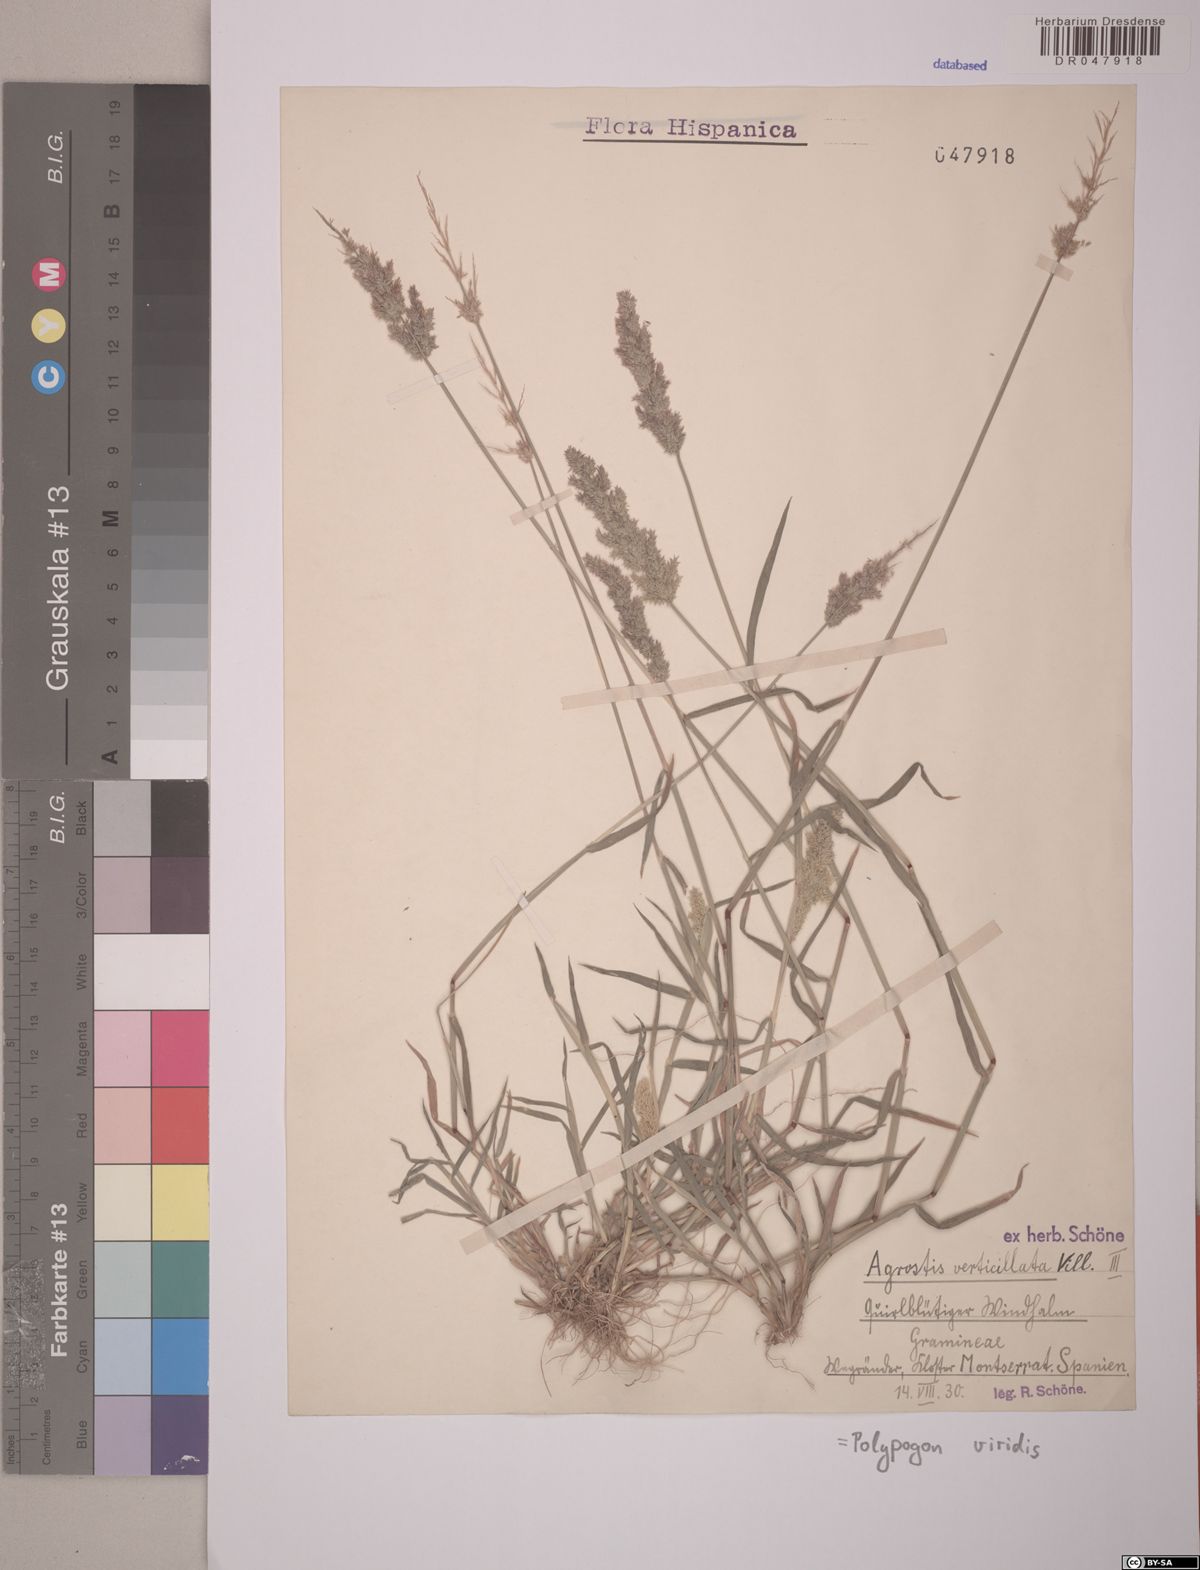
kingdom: Plantae
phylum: Tracheophyta
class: Liliopsida
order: Poales
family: Poaceae
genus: Polypogon
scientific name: Polypogon viridis
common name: Water bent
